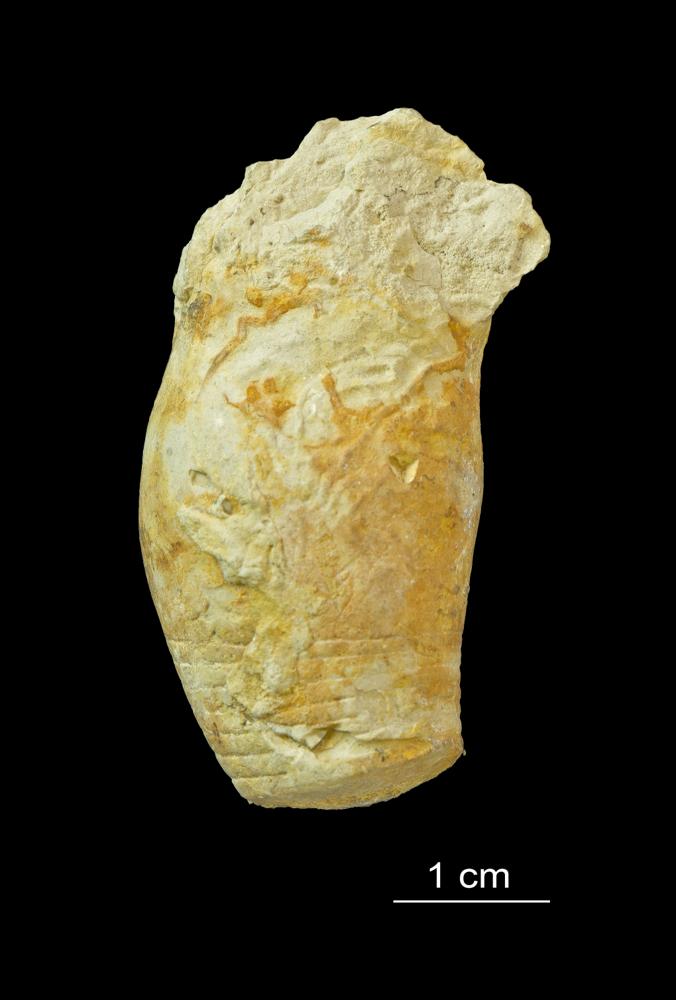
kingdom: Animalia
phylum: Mollusca
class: Cephalopoda
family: Poterioceratidae
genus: Gomphoceras
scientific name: Gomphoceras
